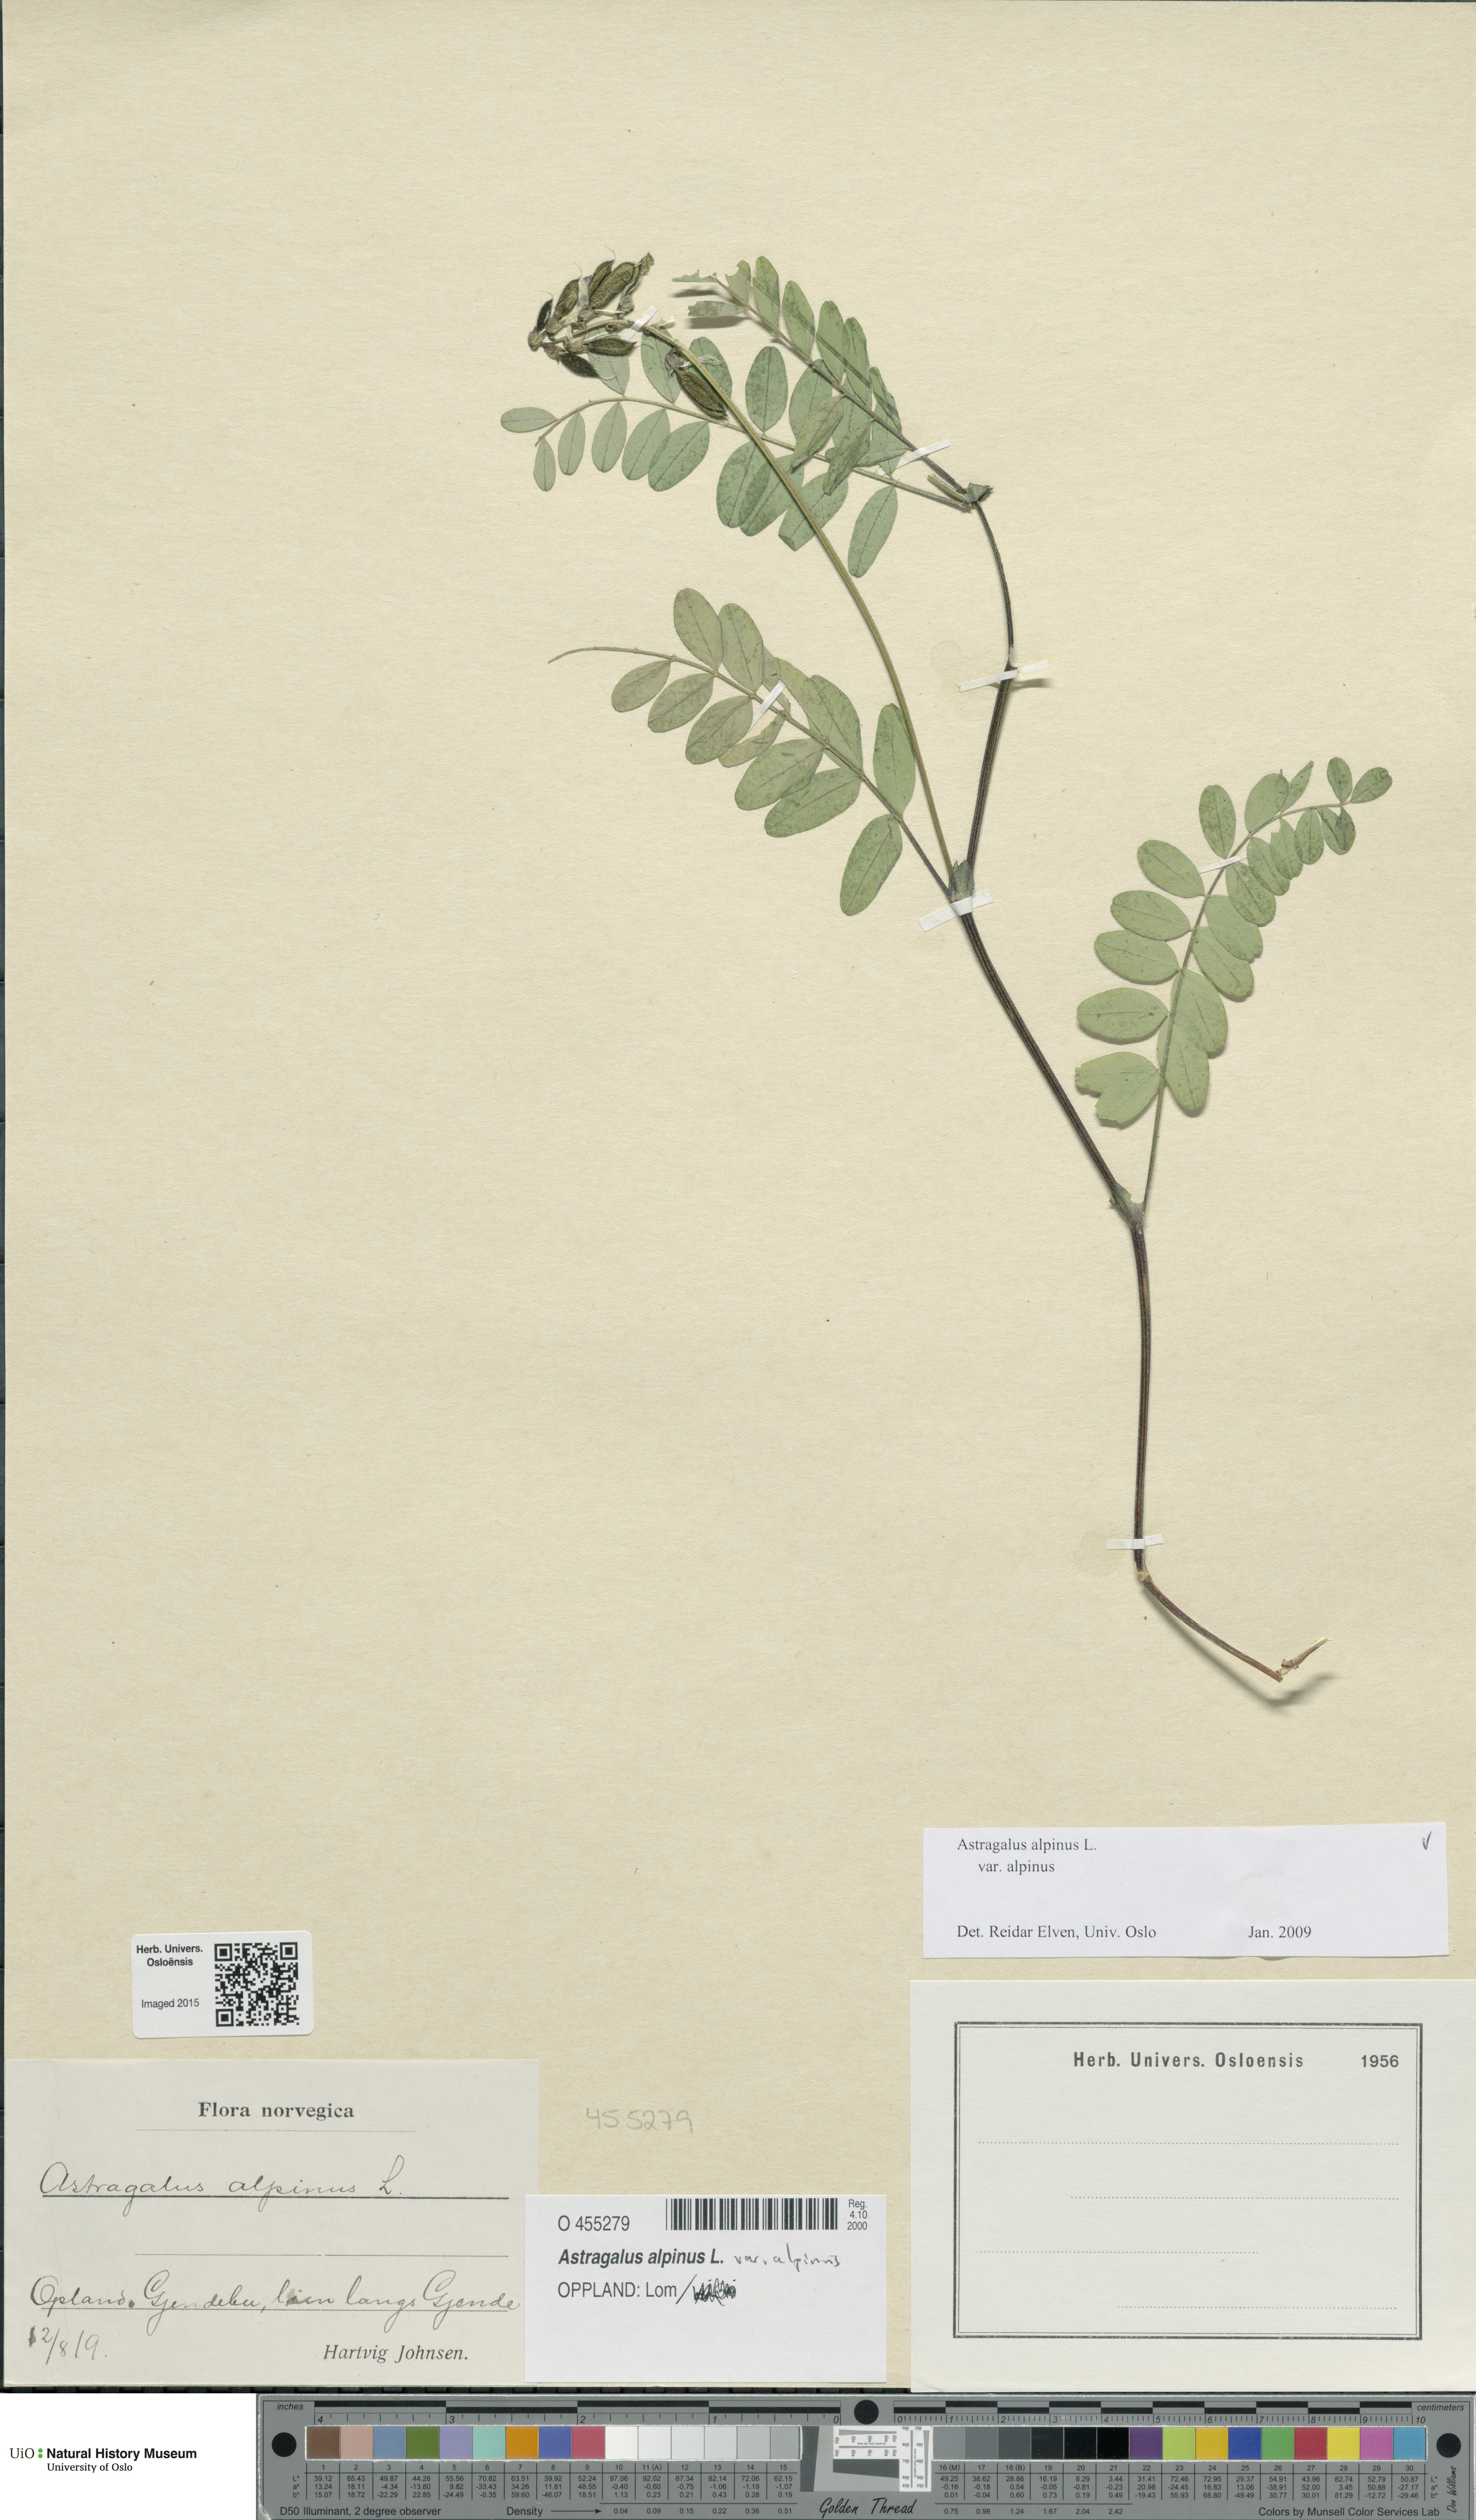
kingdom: Plantae
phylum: Tracheophyta
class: Magnoliopsida
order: Fabales
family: Fabaceae
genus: Astragalus
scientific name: Astragalus alpinus
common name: Alpine milk-vetch
